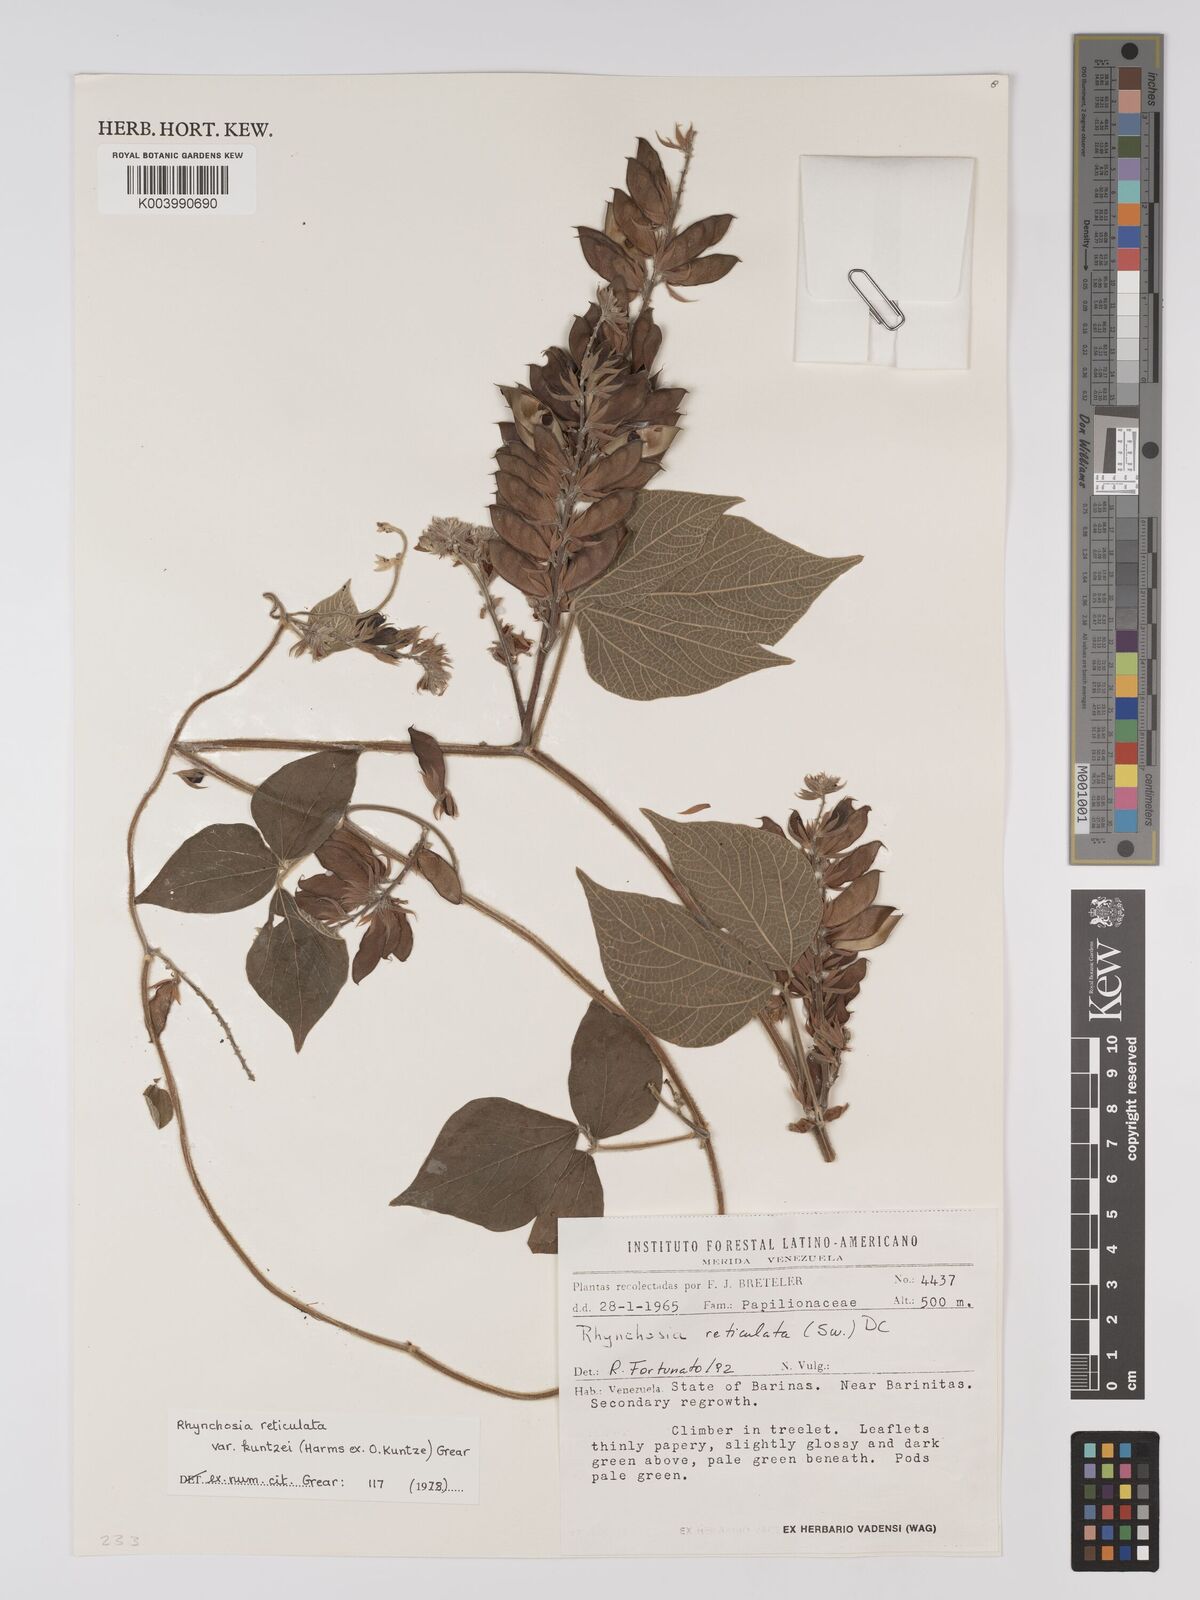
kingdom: Plantae
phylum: Tracheophyta
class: Magnoliopsida
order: Fabales
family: Fabaceae
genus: Rhynchosia
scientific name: Rhynchosia reticulata
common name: Pea withe
